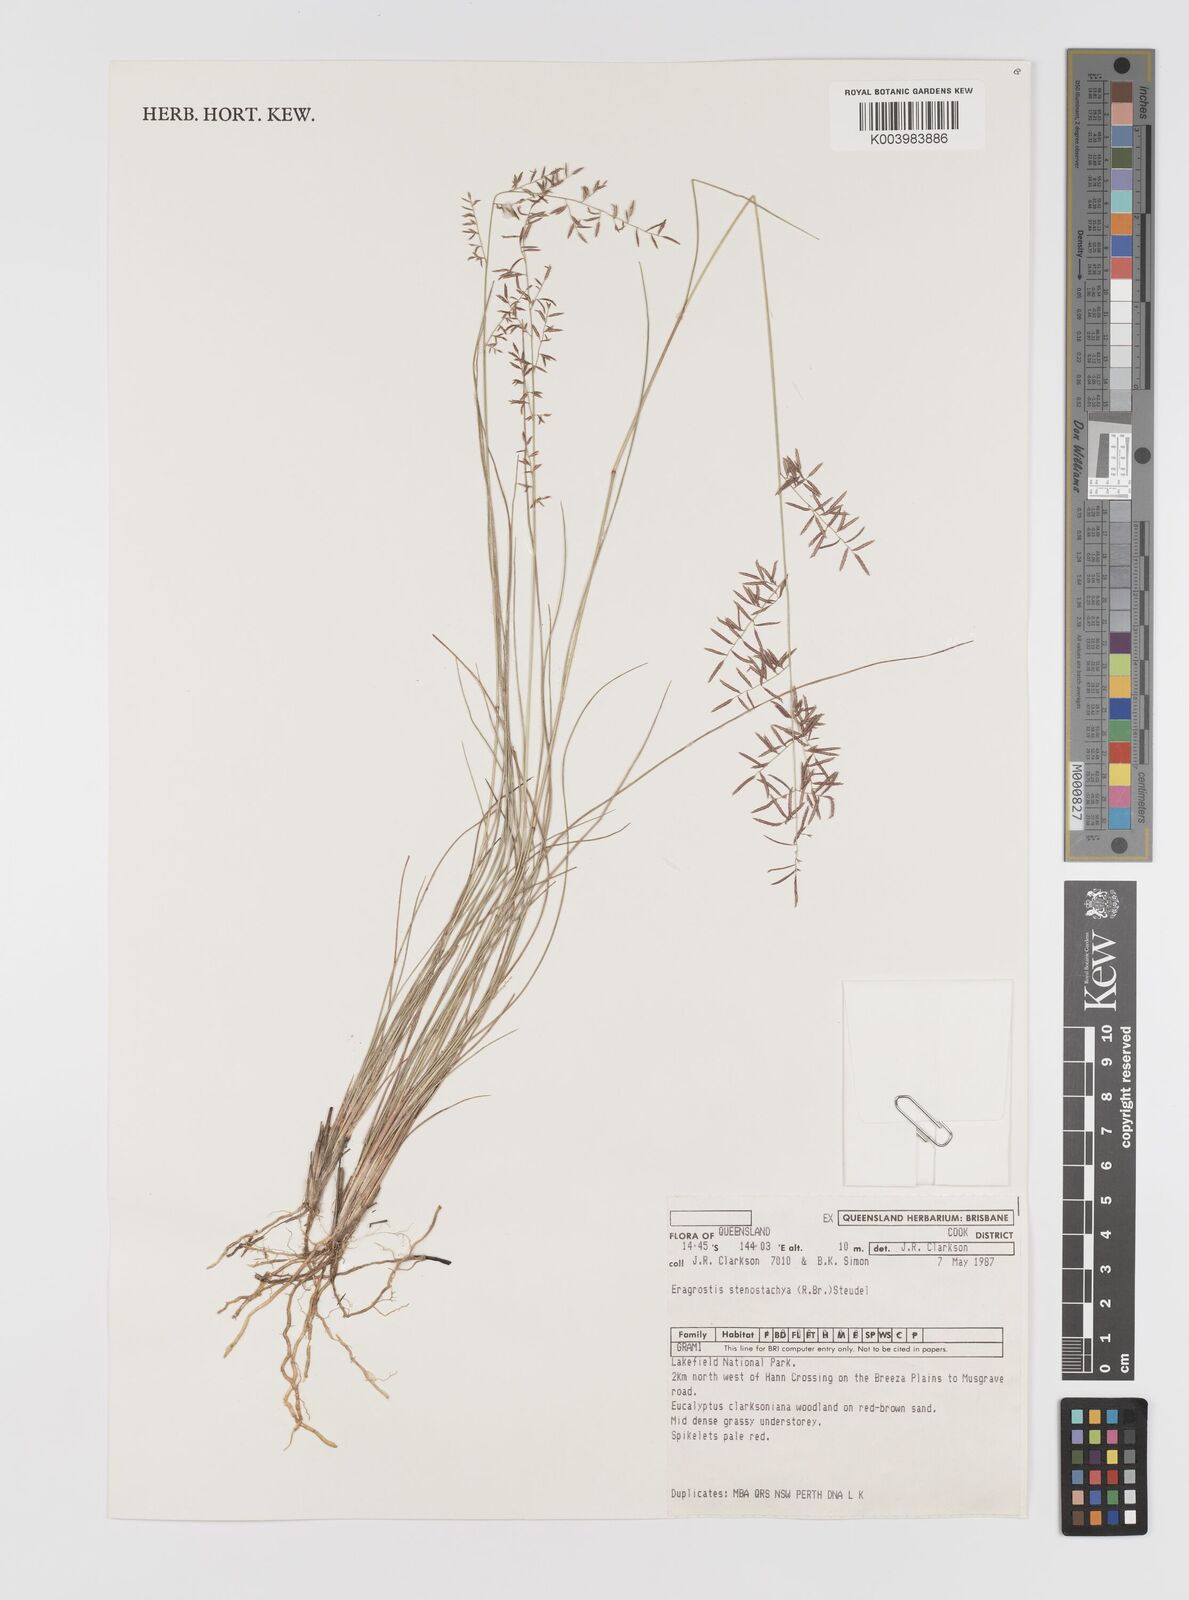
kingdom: Plantae
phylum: Tracheophyta
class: Liliopsida
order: Poales
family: Poaceae
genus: Eragrostis
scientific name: Eragrostis stenostachya
